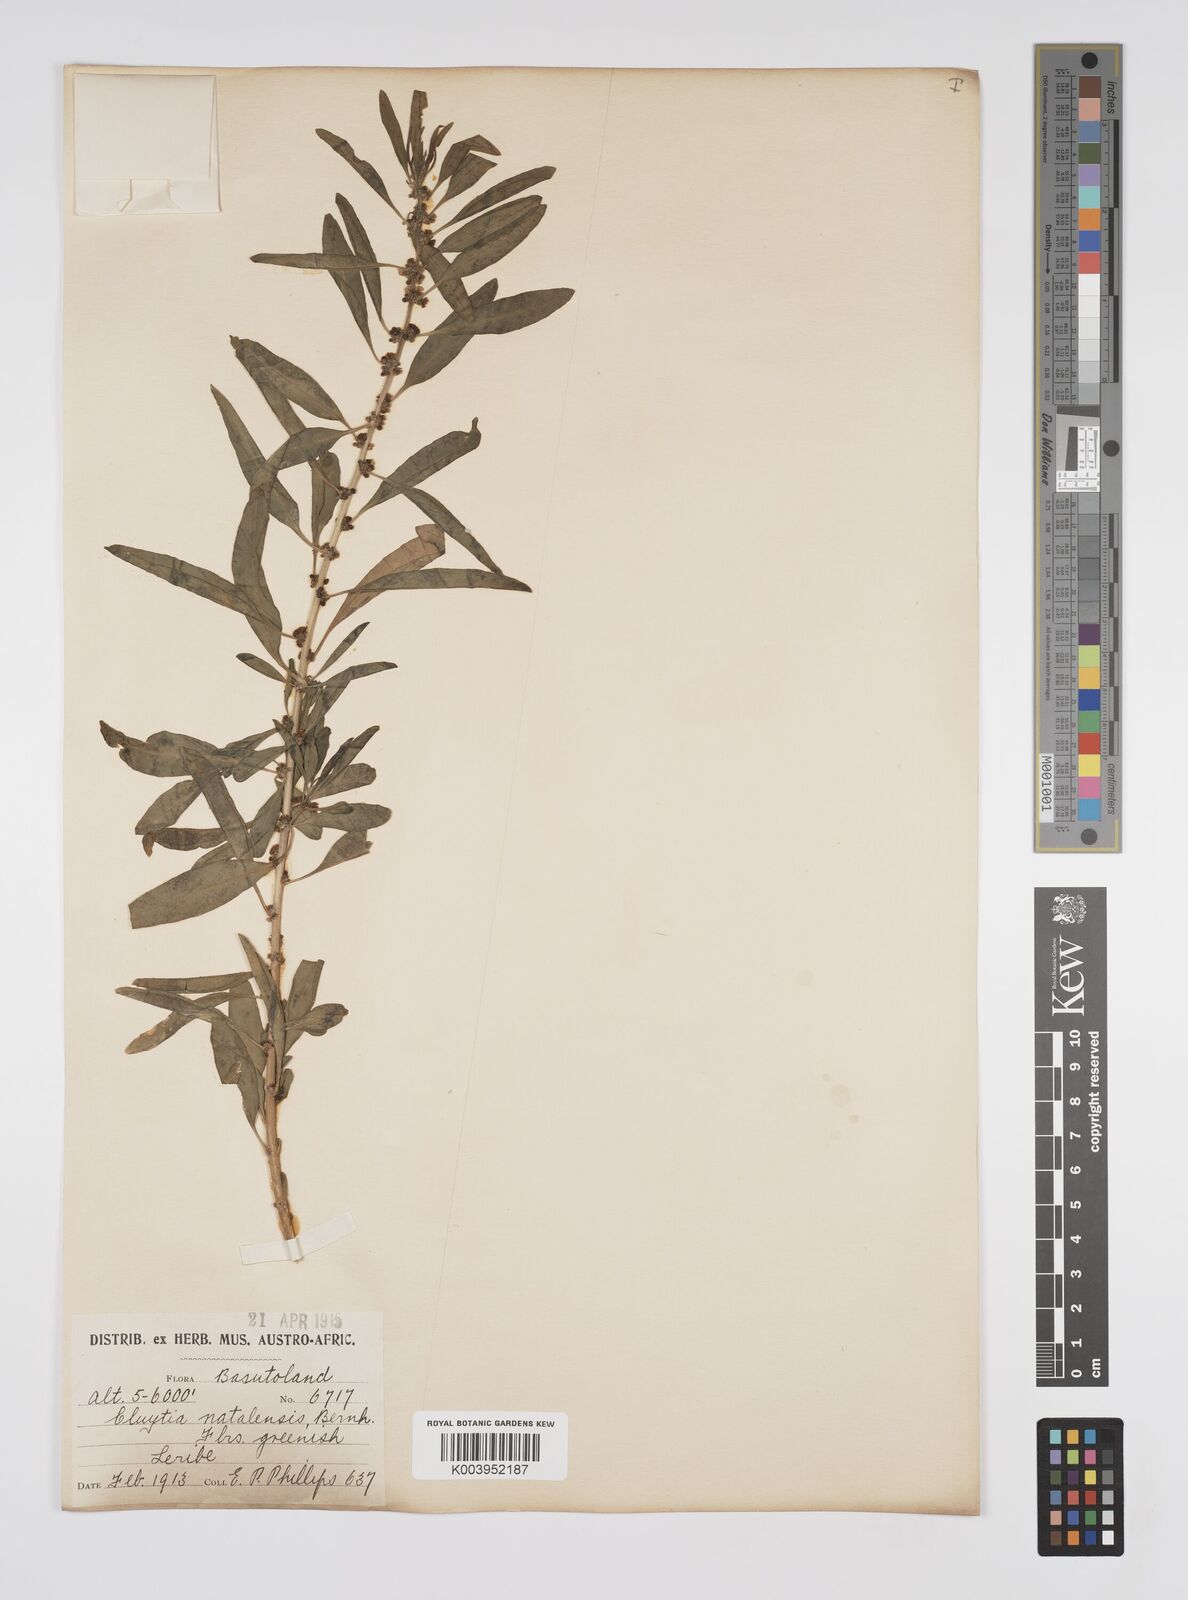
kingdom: Plantae
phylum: Tracheophyta
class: Magnoliopsida
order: Malpighiales
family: Peraceae
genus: Clutia
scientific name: Clutia natalensis
